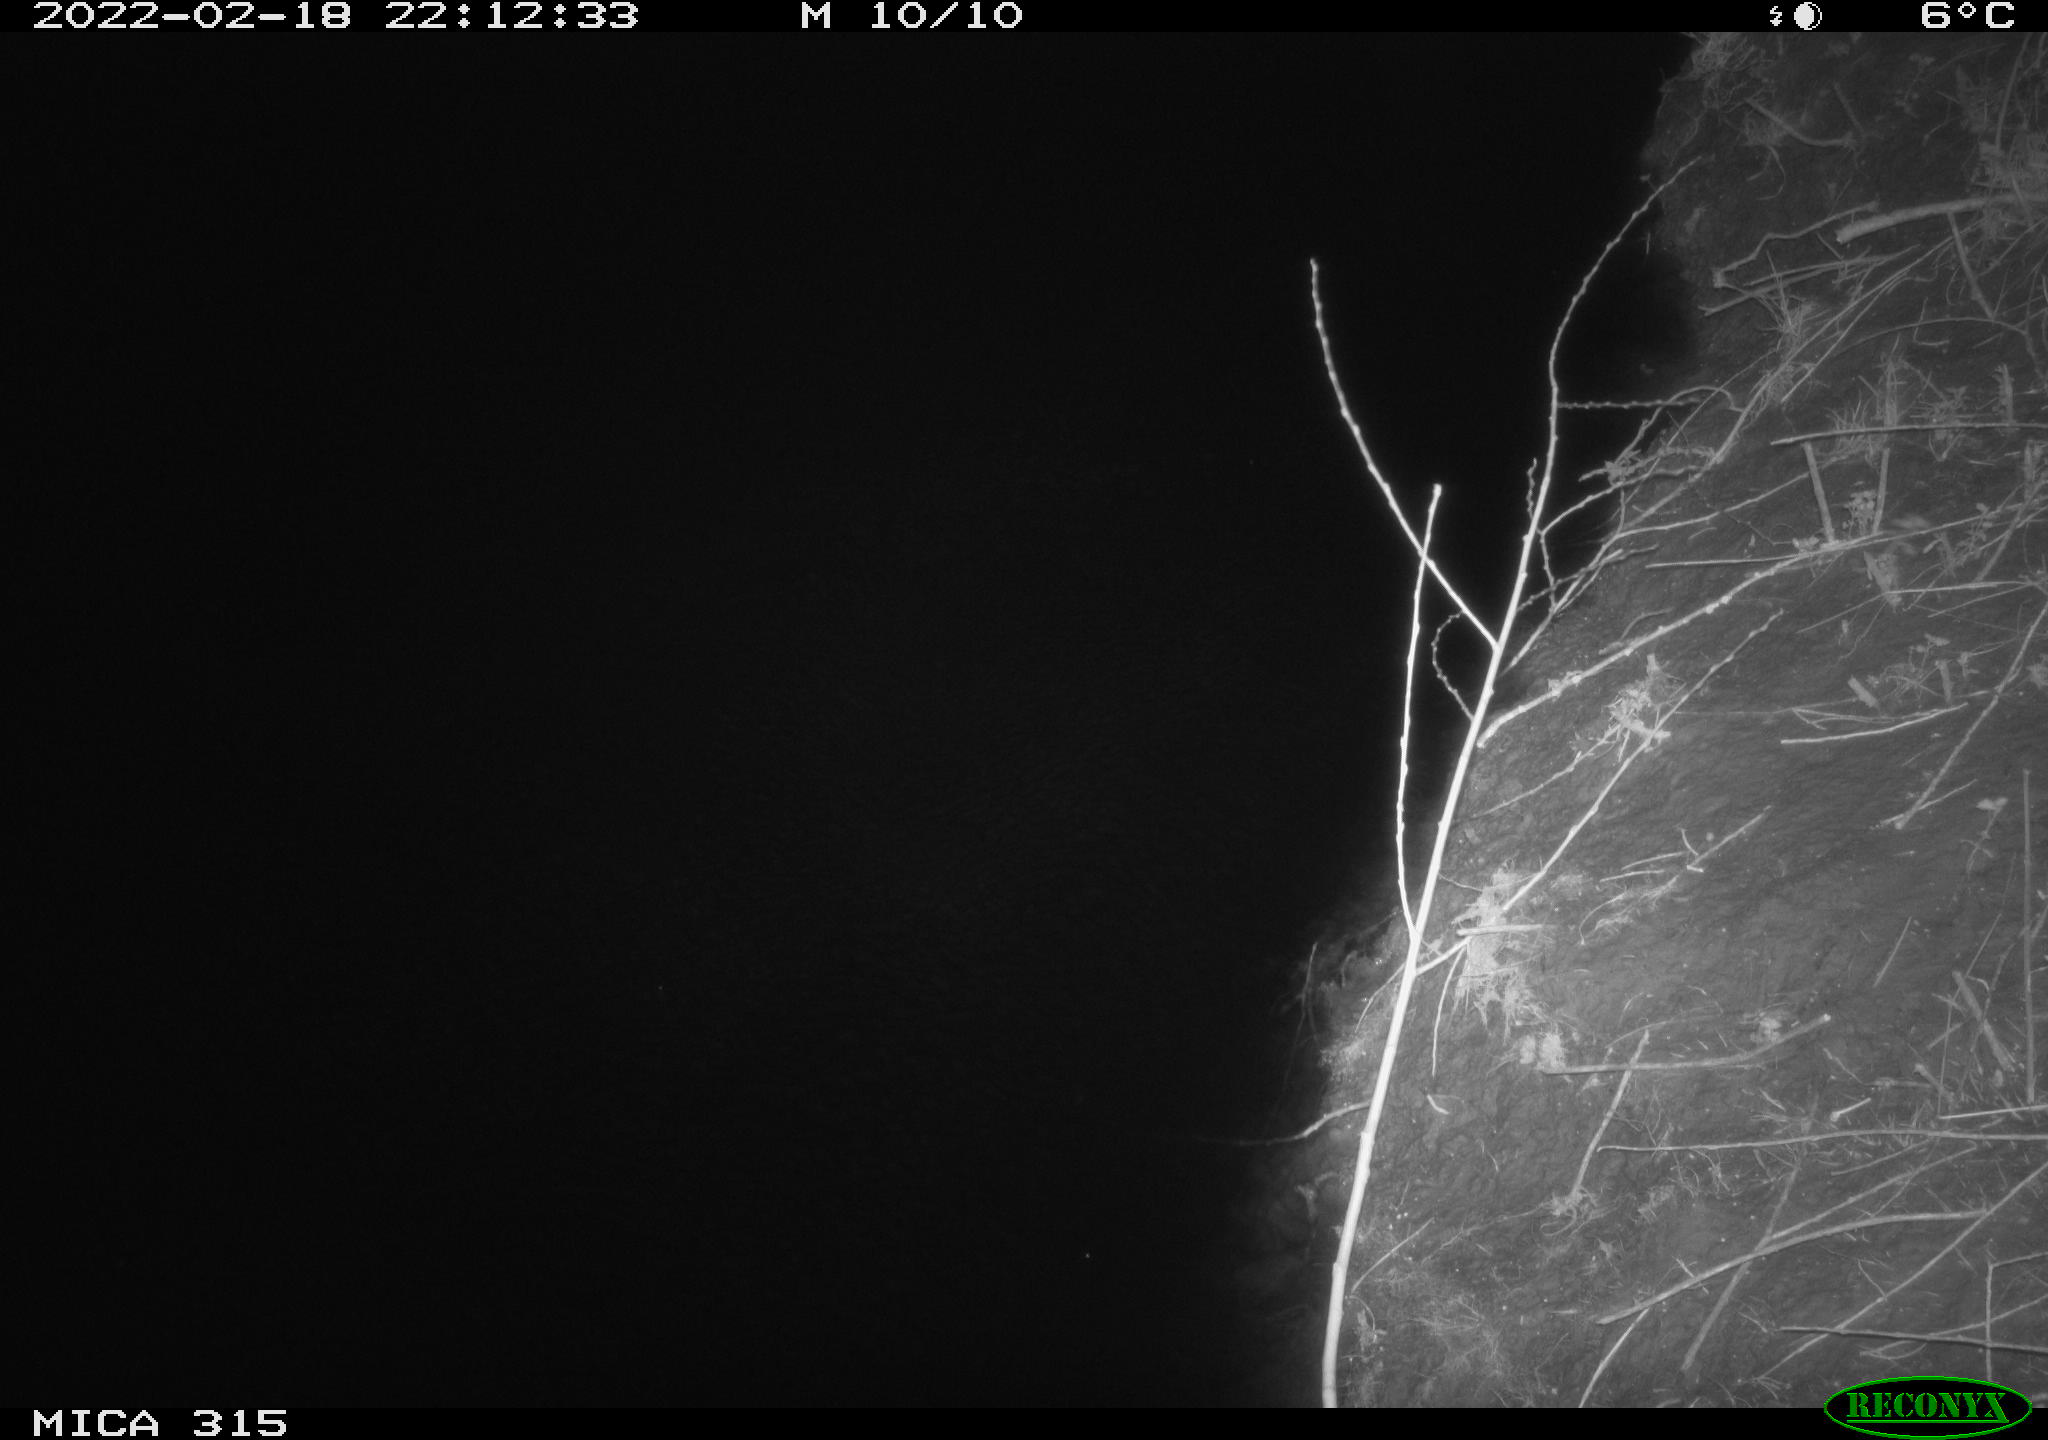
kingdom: Animalia
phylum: Chordata
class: Mammalia
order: Rodentia
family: Muridae
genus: Rattus
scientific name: Rattus norvegicus
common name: Brown rat
